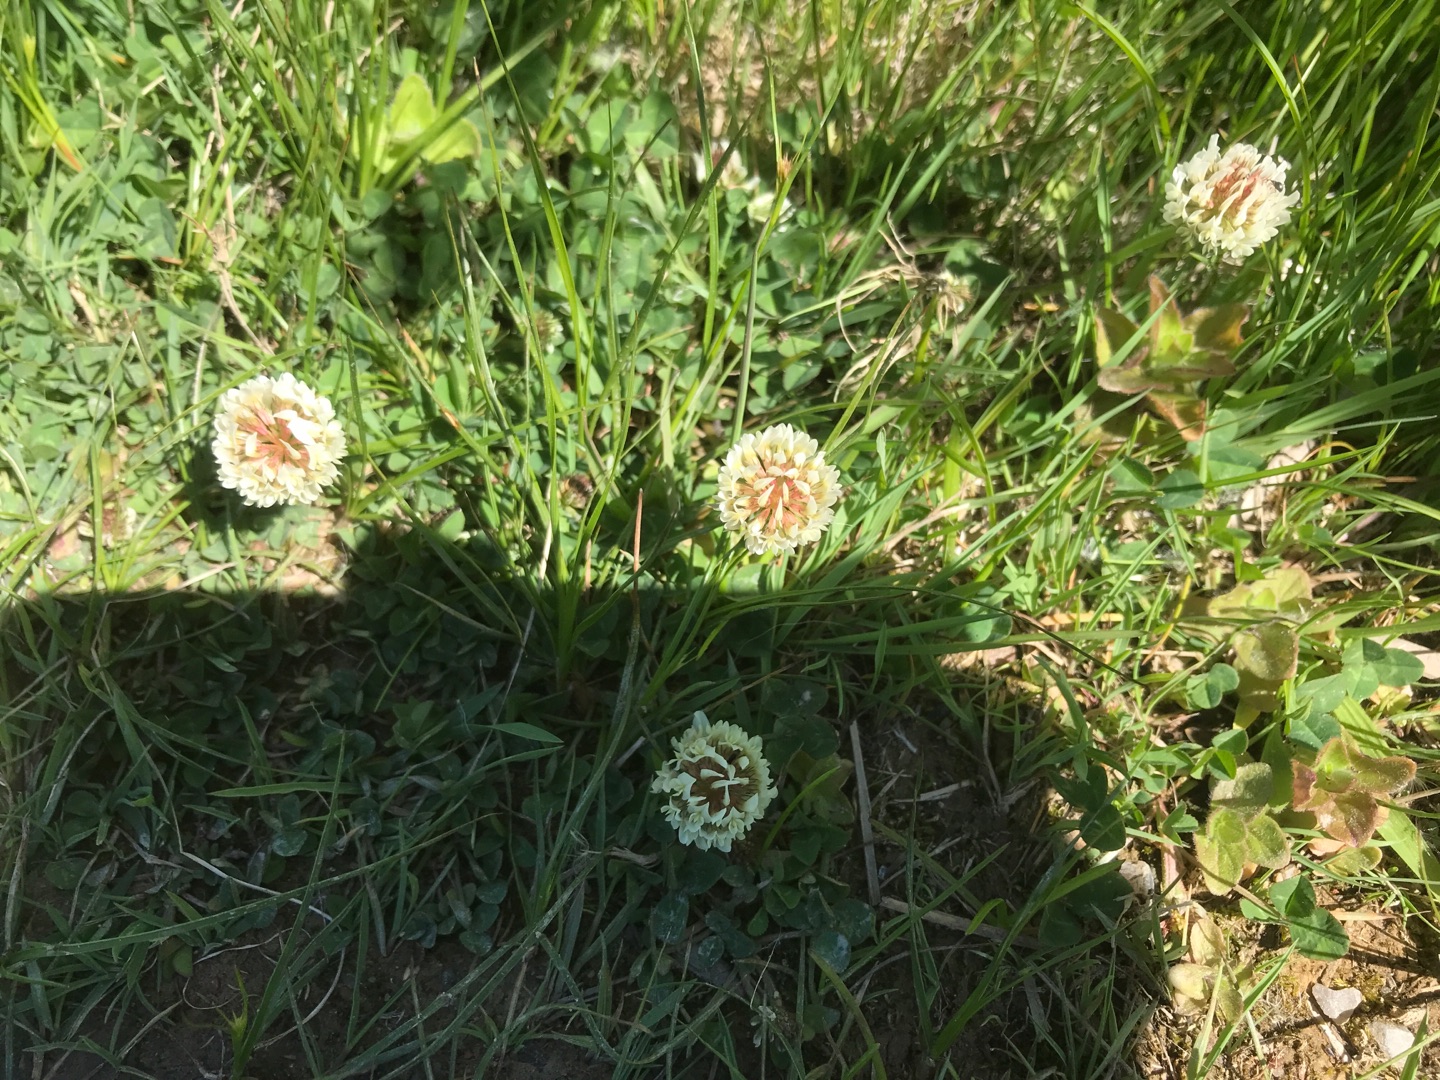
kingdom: Plantae
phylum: Tracheophyta
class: Magnoliopsida
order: Fabales
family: Fabaceae
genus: Trifolium
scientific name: Trifolium repens
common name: Hvid-kløver
